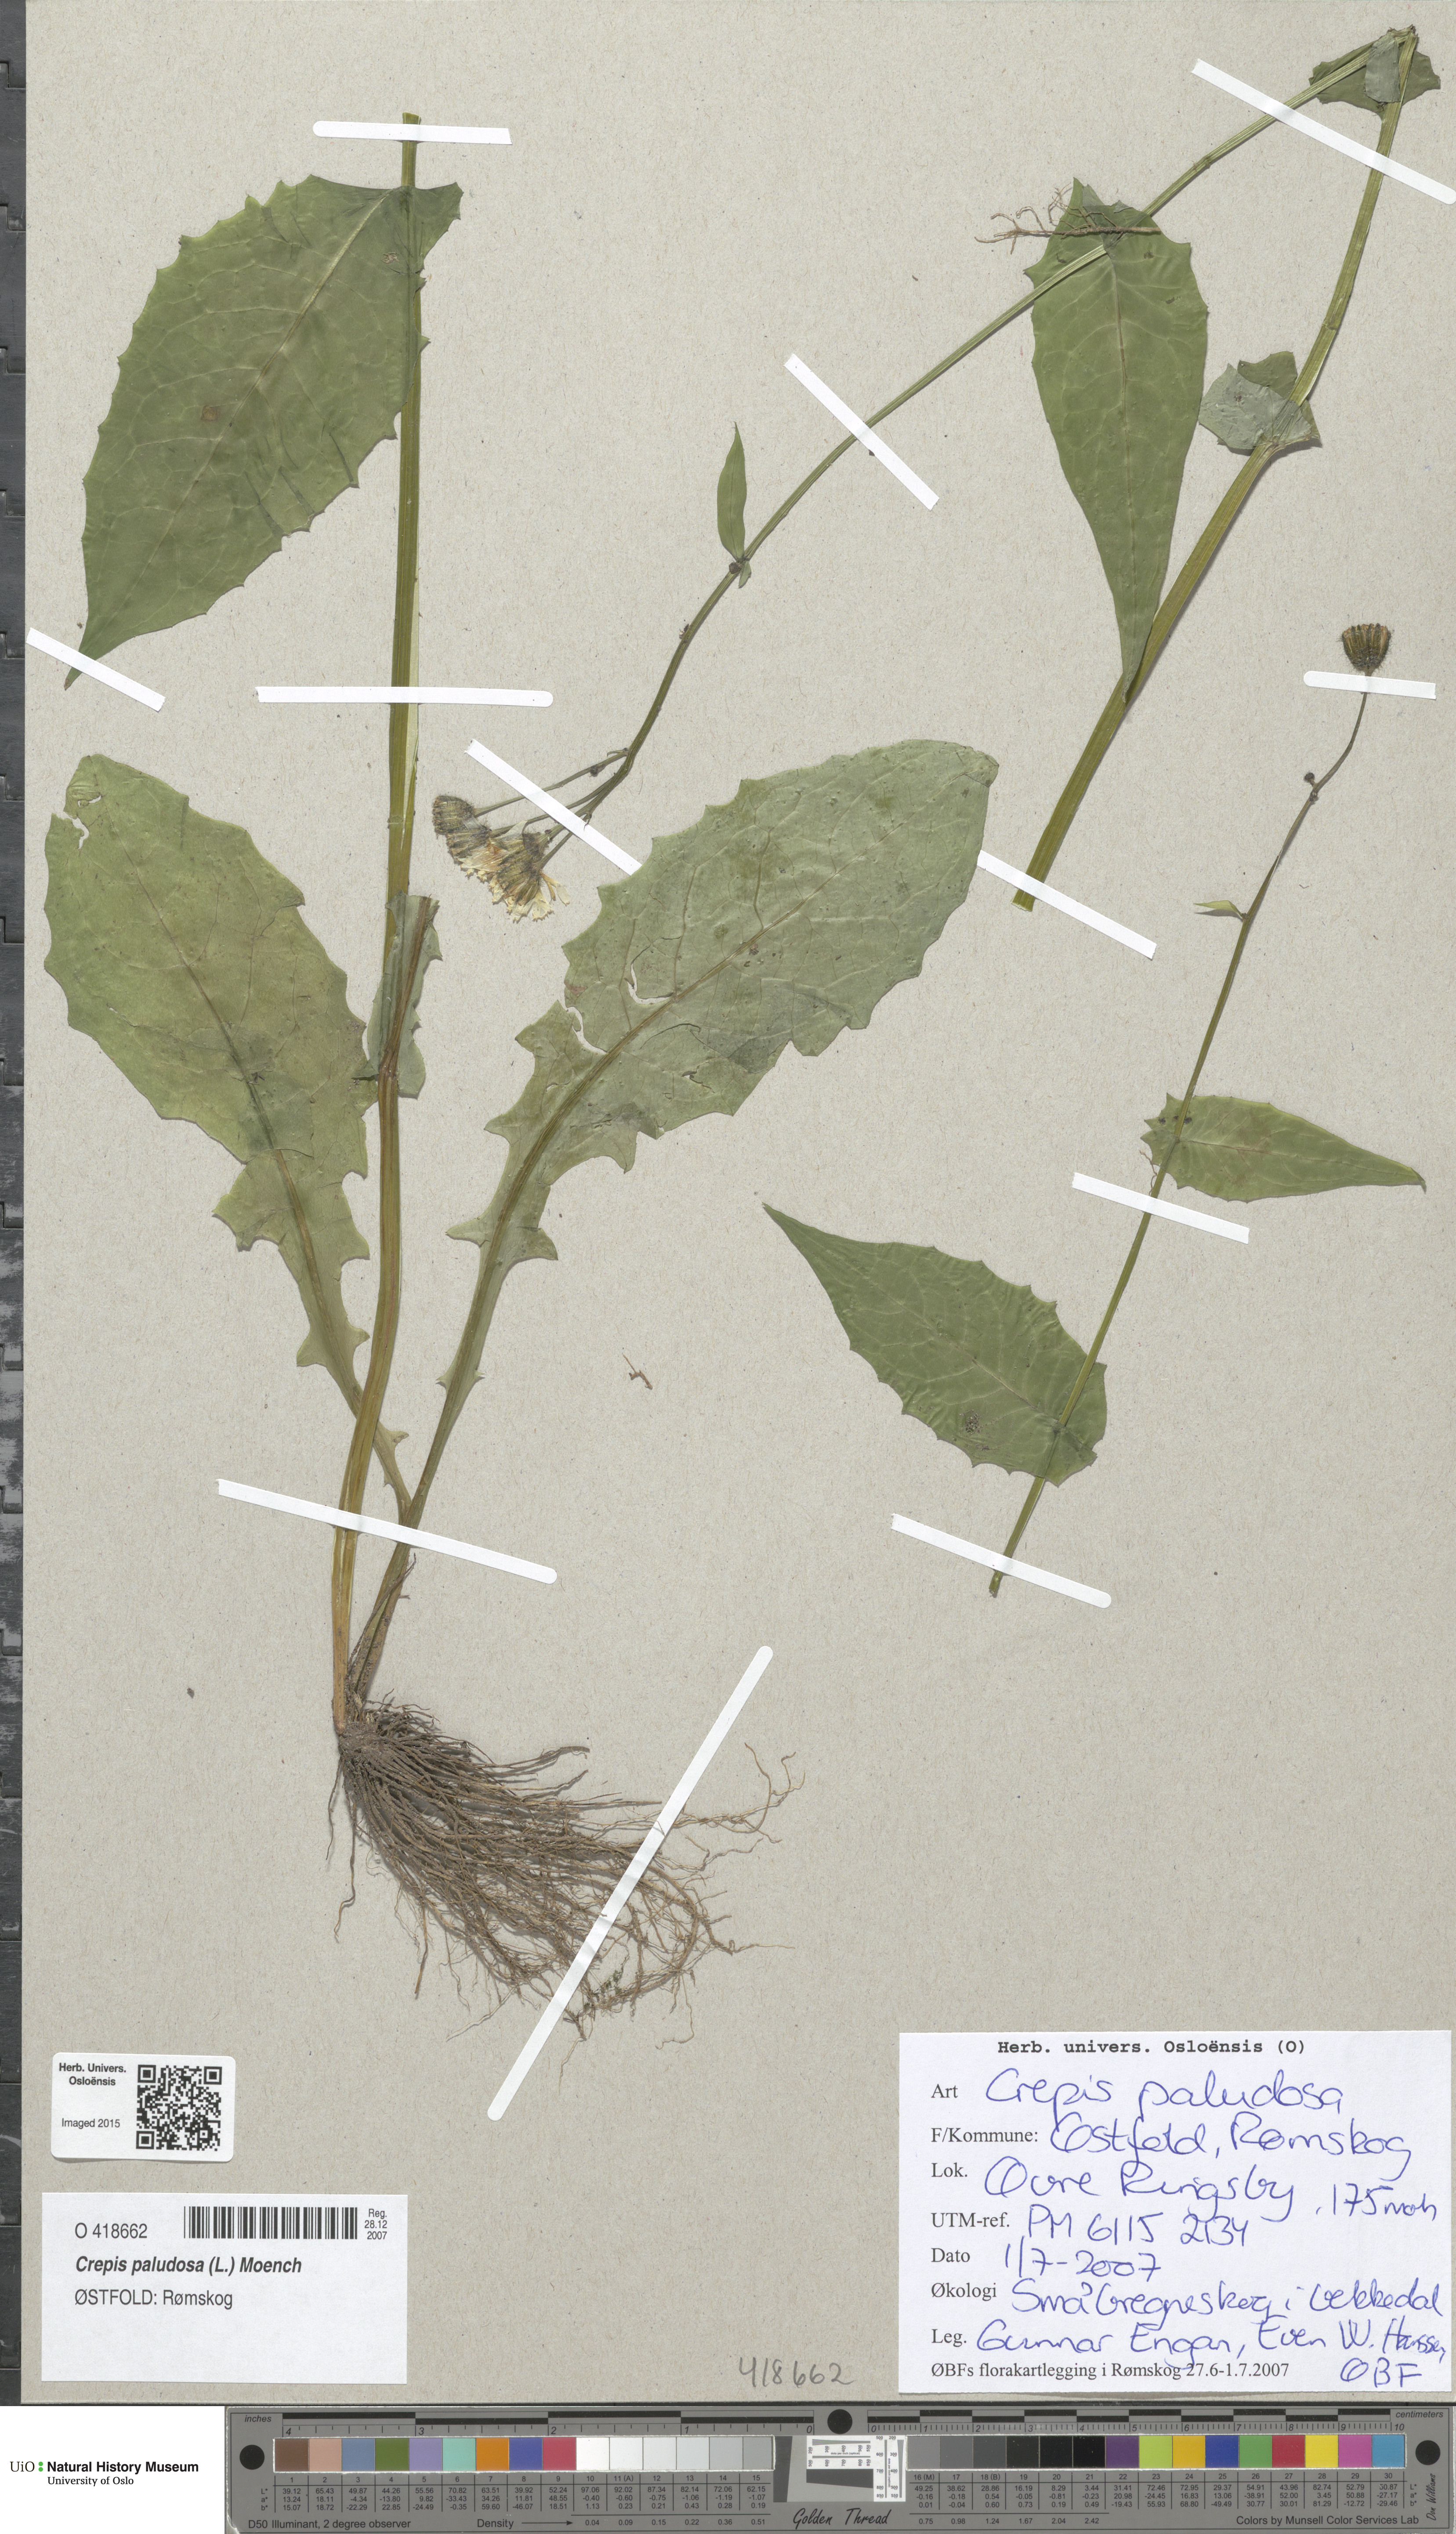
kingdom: Plantae
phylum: Tracheophyta
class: Magnoliopsida
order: Asterales
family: Asteraceae
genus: Crepis
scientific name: Crepis paludosa
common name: Marsh hawk's-beard
